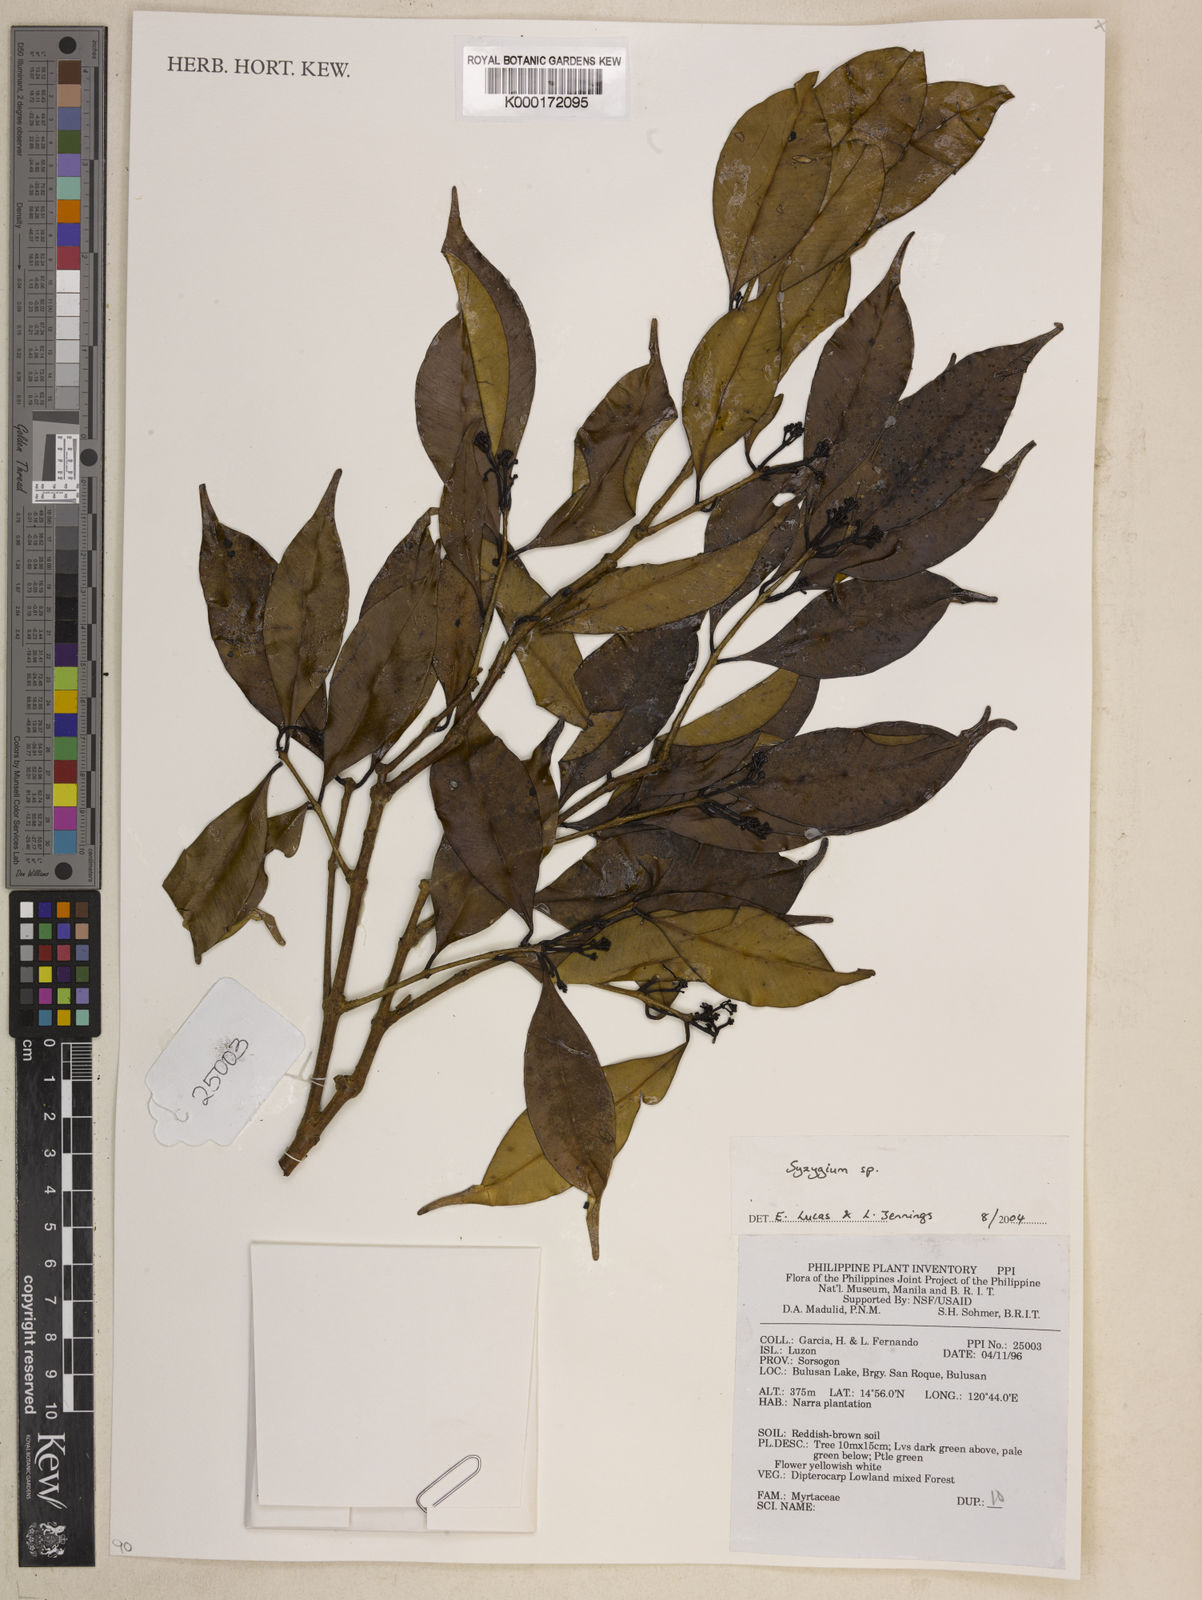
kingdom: Plantae
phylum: Tracheophyta
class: Magnoliopsida
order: Myrtales
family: Myrtaceae
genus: Syzygium
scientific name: Syzygium
